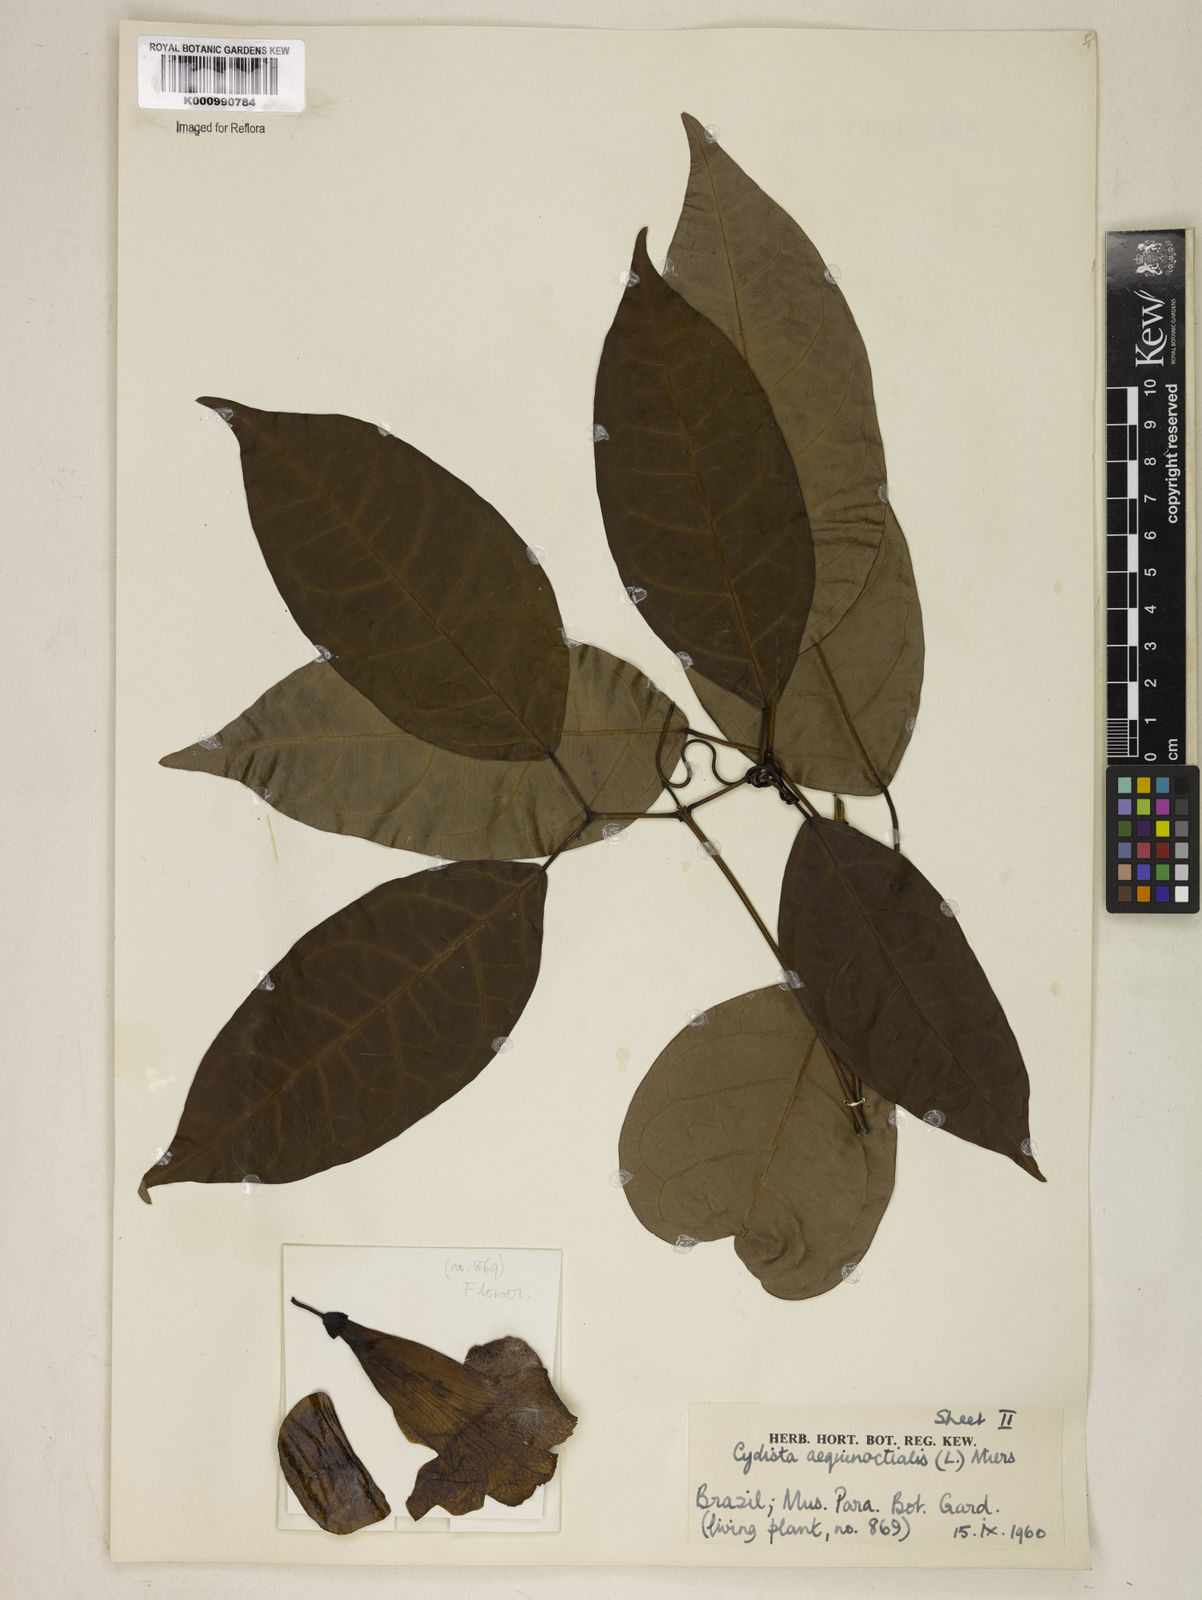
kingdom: Plantae
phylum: Tracheophyta
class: Magnoliopsida
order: Lamiales
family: Bignoniaceae
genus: Bignonia
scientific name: Bignonia aequinoctialis
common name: Garlicvine
